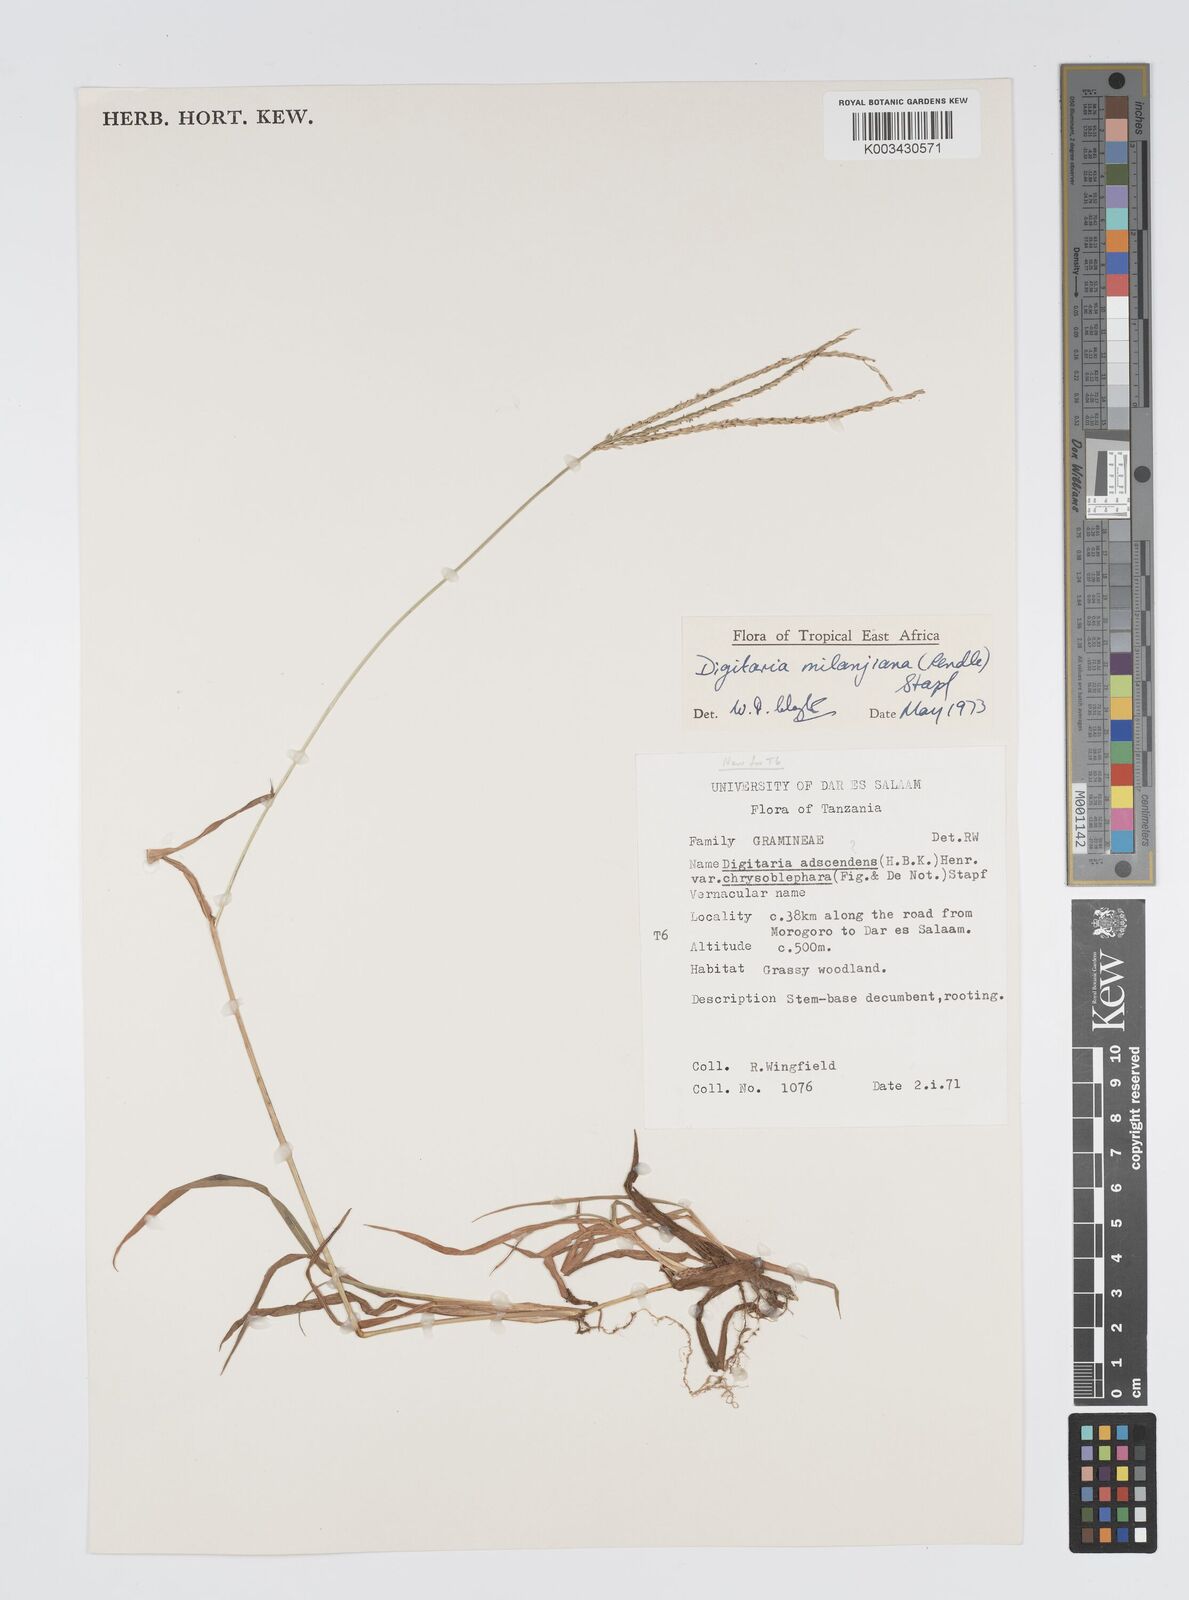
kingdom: Plantae
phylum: Tracheophyta
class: Liliopsida
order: Poales
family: Poaceae
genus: Digitaria
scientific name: Digitaria milanjiana
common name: Madagascar crabgrass
